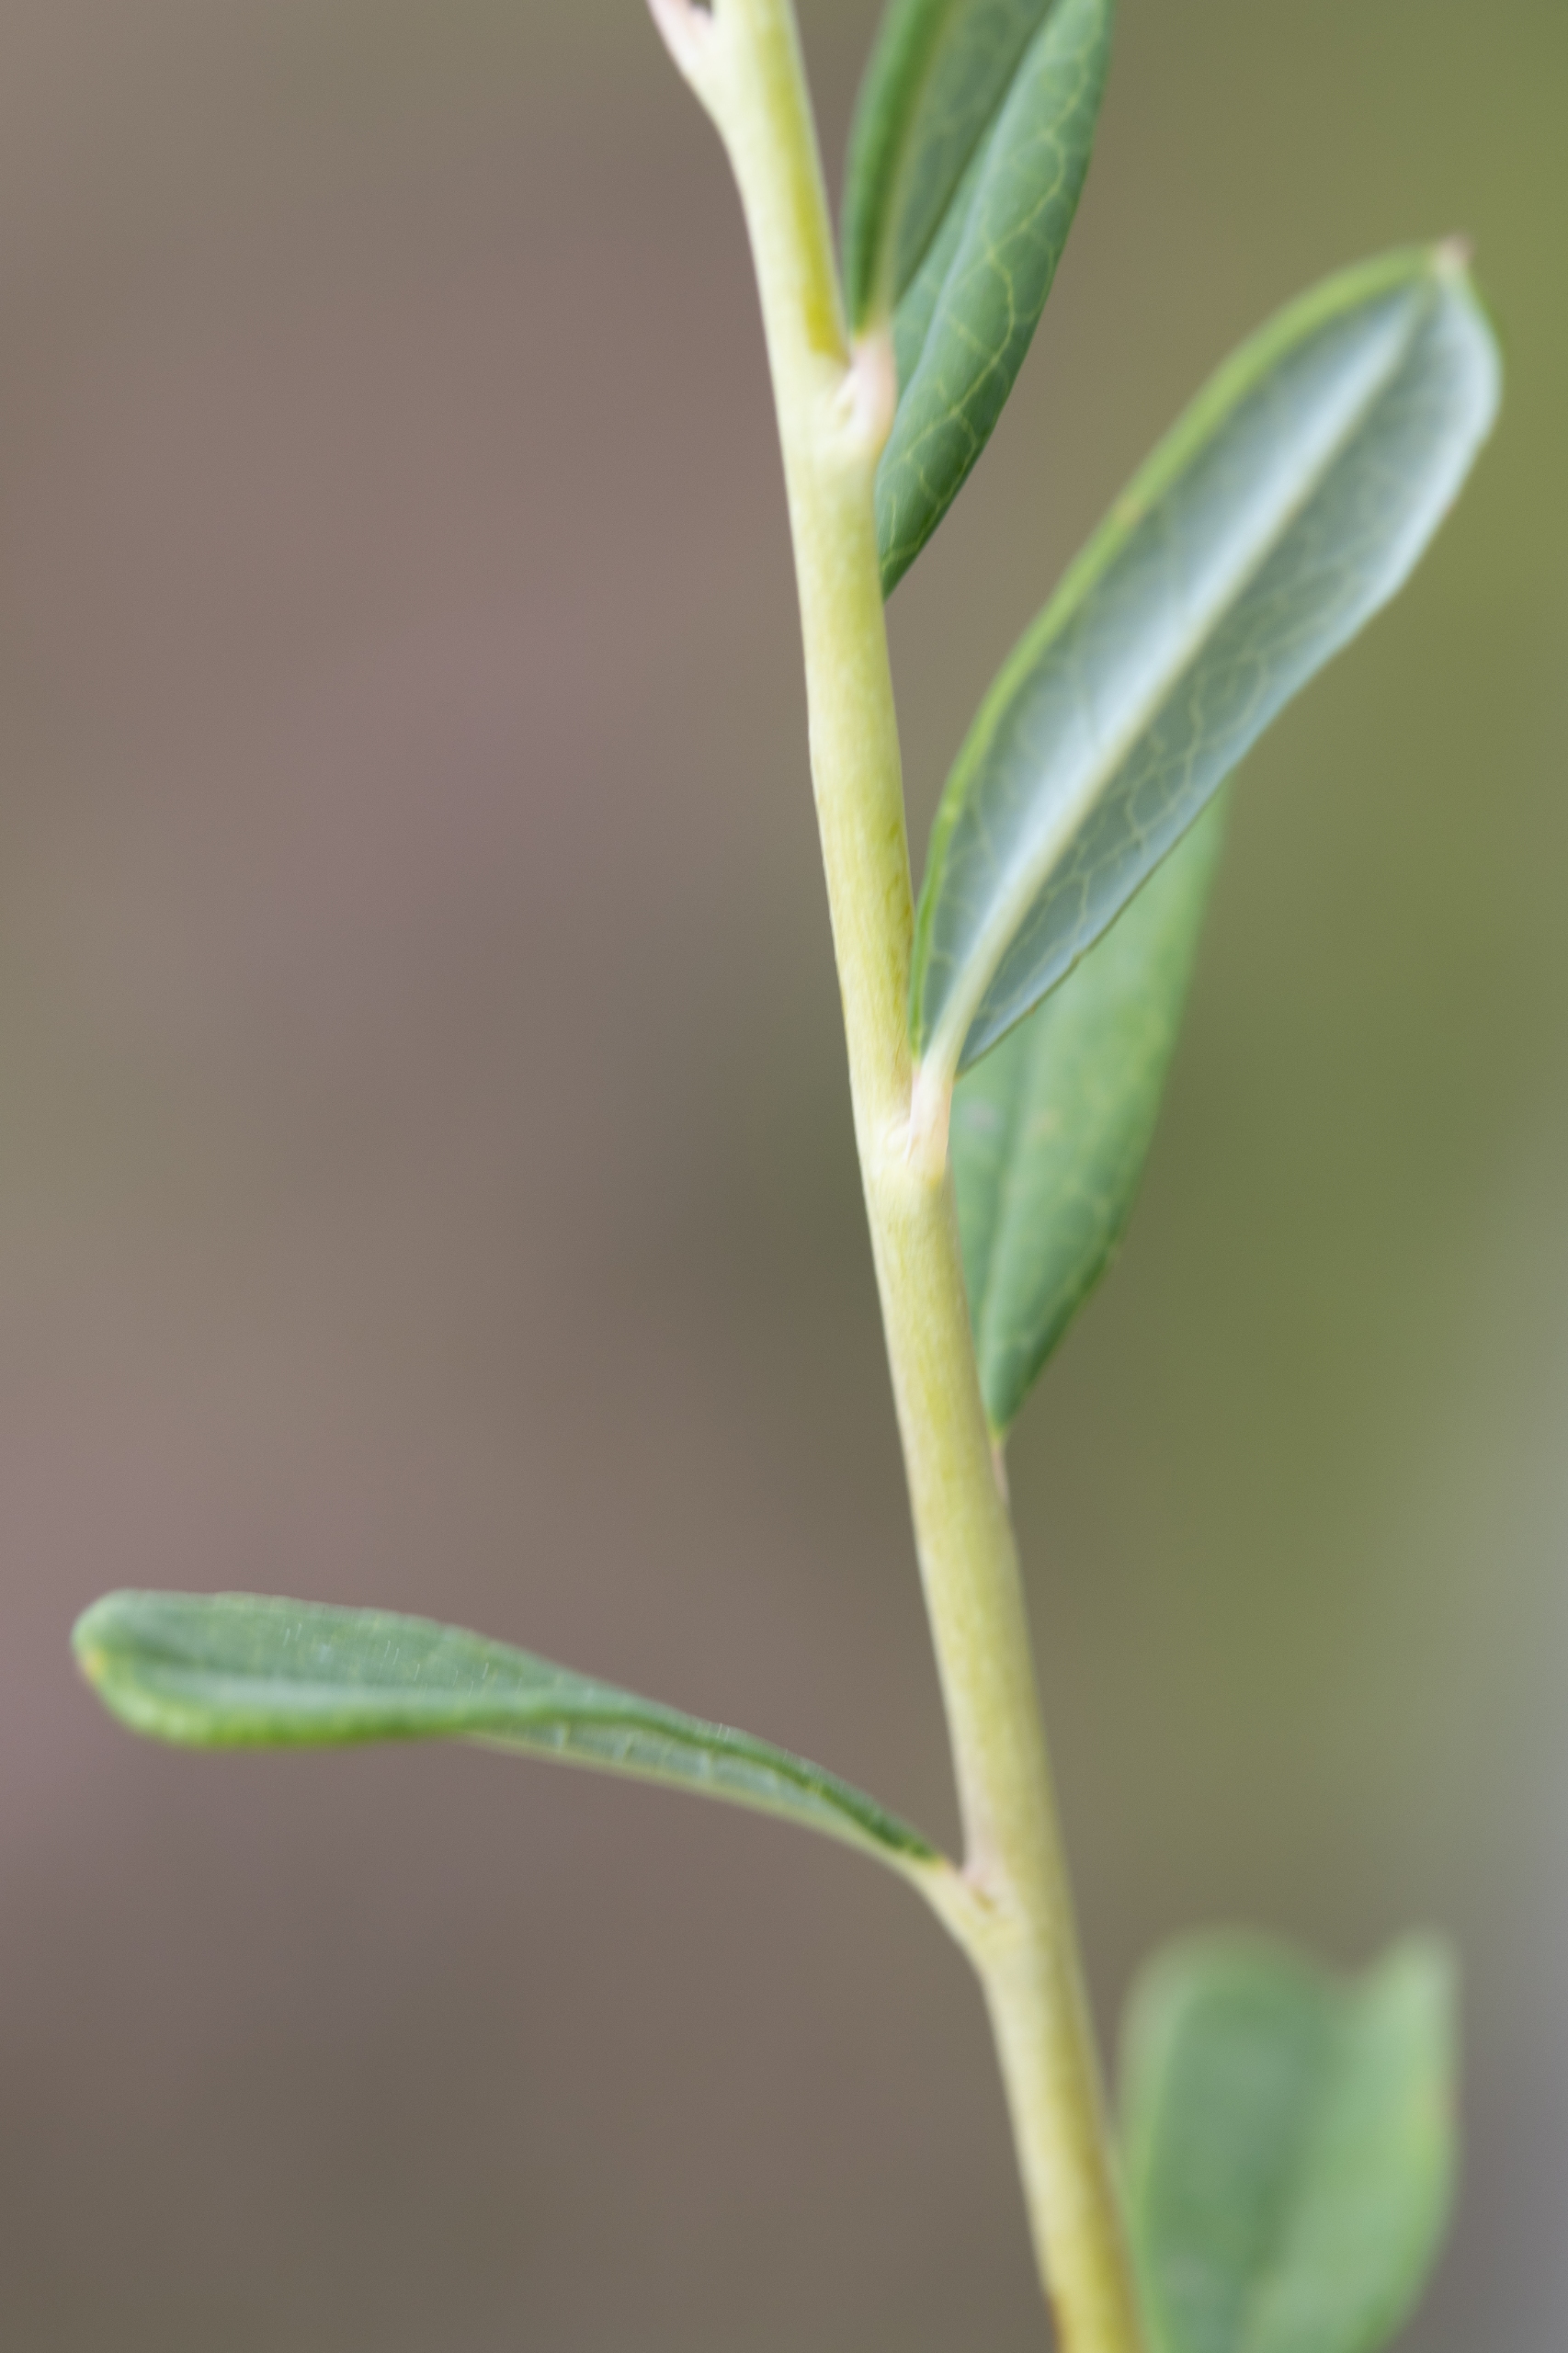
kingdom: Plantae
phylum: Tracheophyta
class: Magnoliopsida
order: Ericales
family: Ericaceae
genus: Andromeda
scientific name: Andromeda polifolia
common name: Rosmarinlyng
